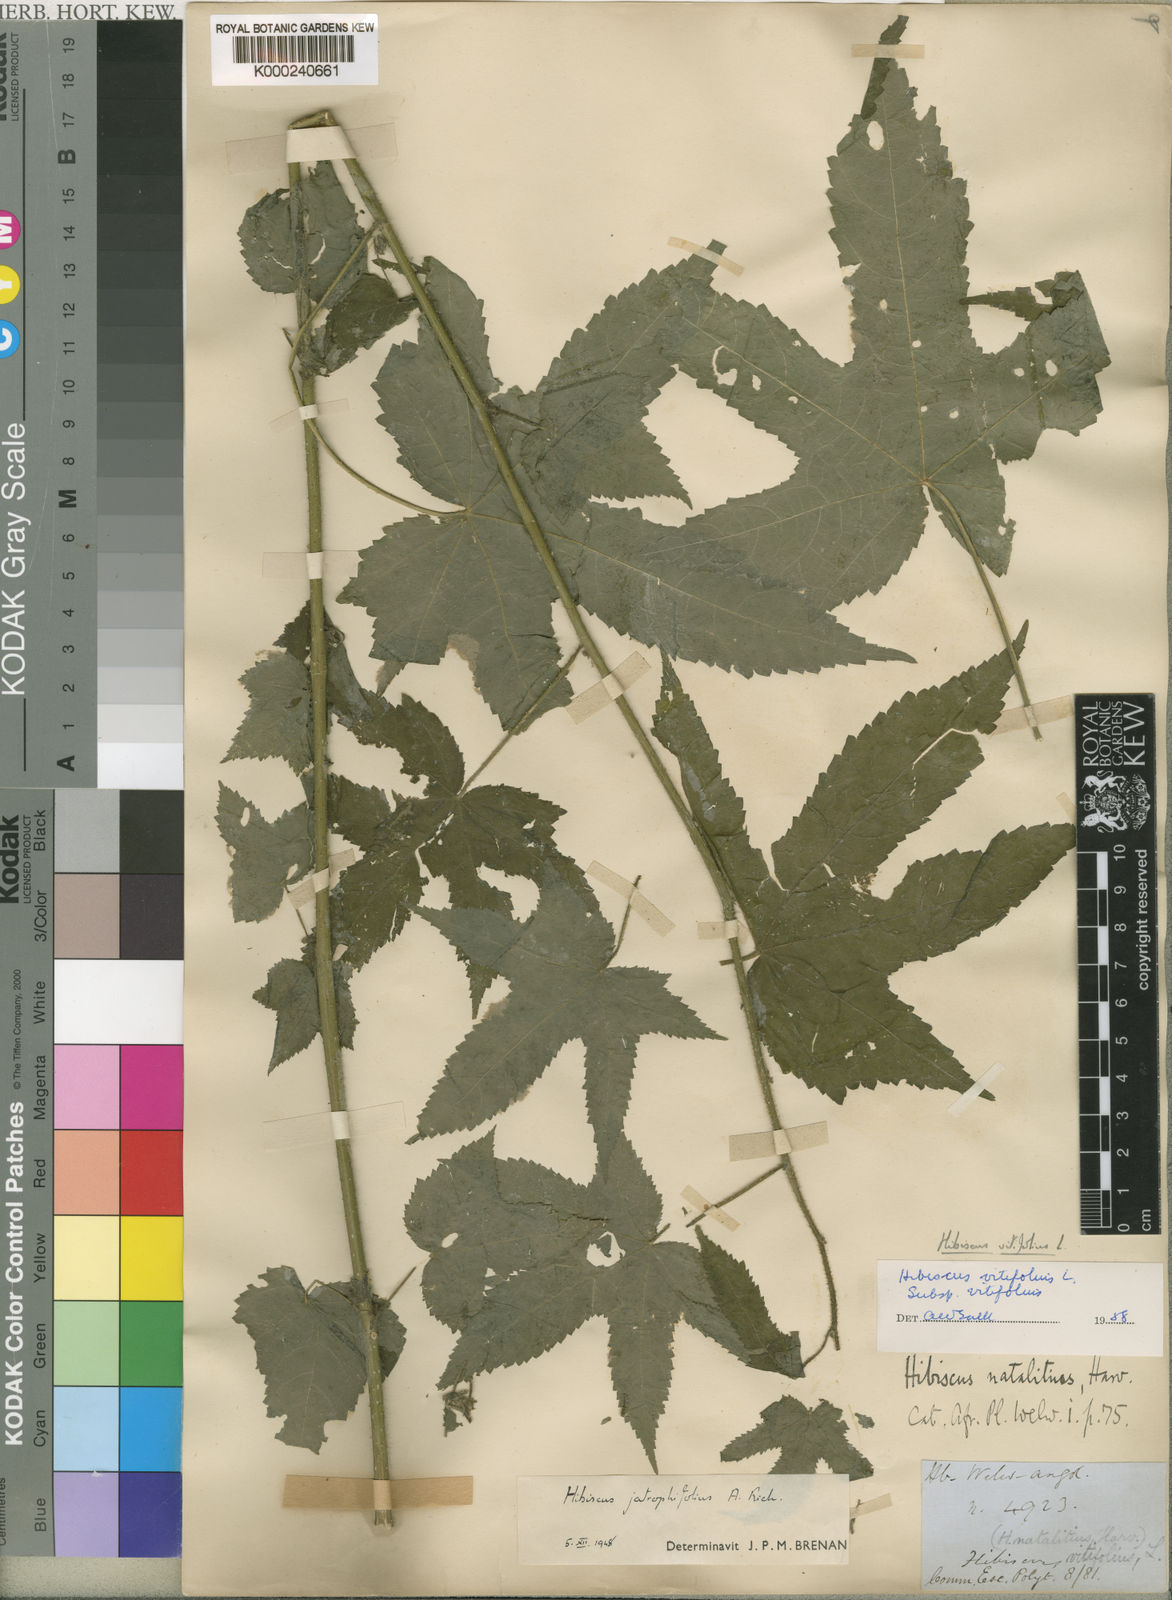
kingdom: Plantae
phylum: Tracheophyta
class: Magnoliopsida
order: Malvales
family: Malvaceae
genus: Hibiscus
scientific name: Hibiscus vitifolius
